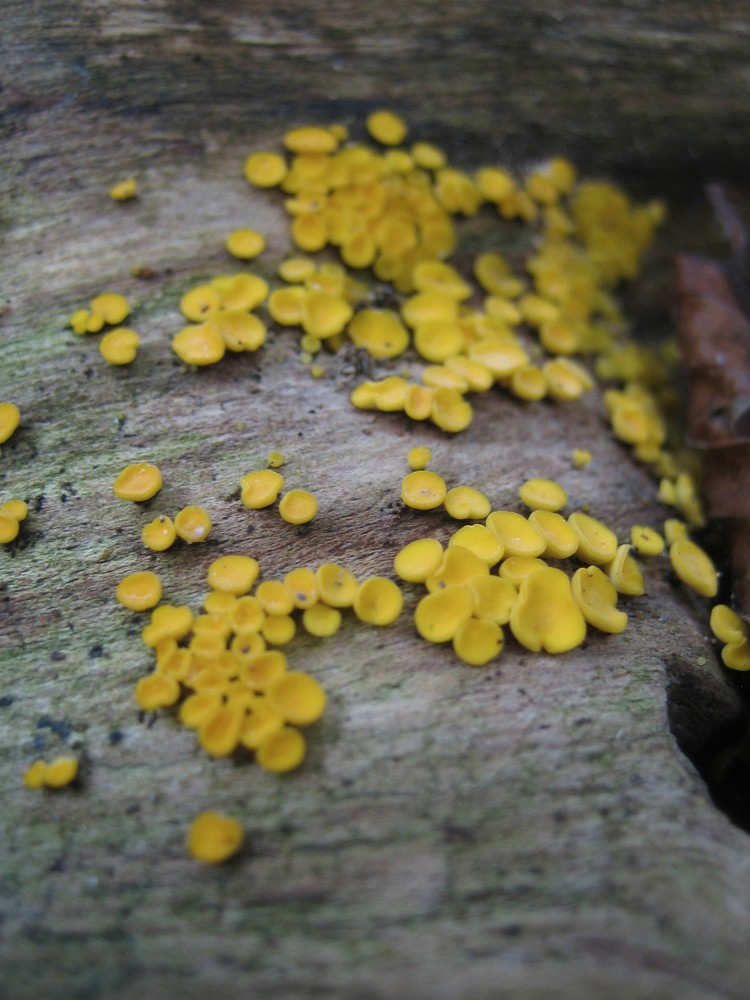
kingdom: Fungi
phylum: Ascomycota
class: Leotiomycetes
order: Helotiales
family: Pezizellaceae
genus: Calycina
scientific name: Calycina citrina
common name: almindelig gulskive
